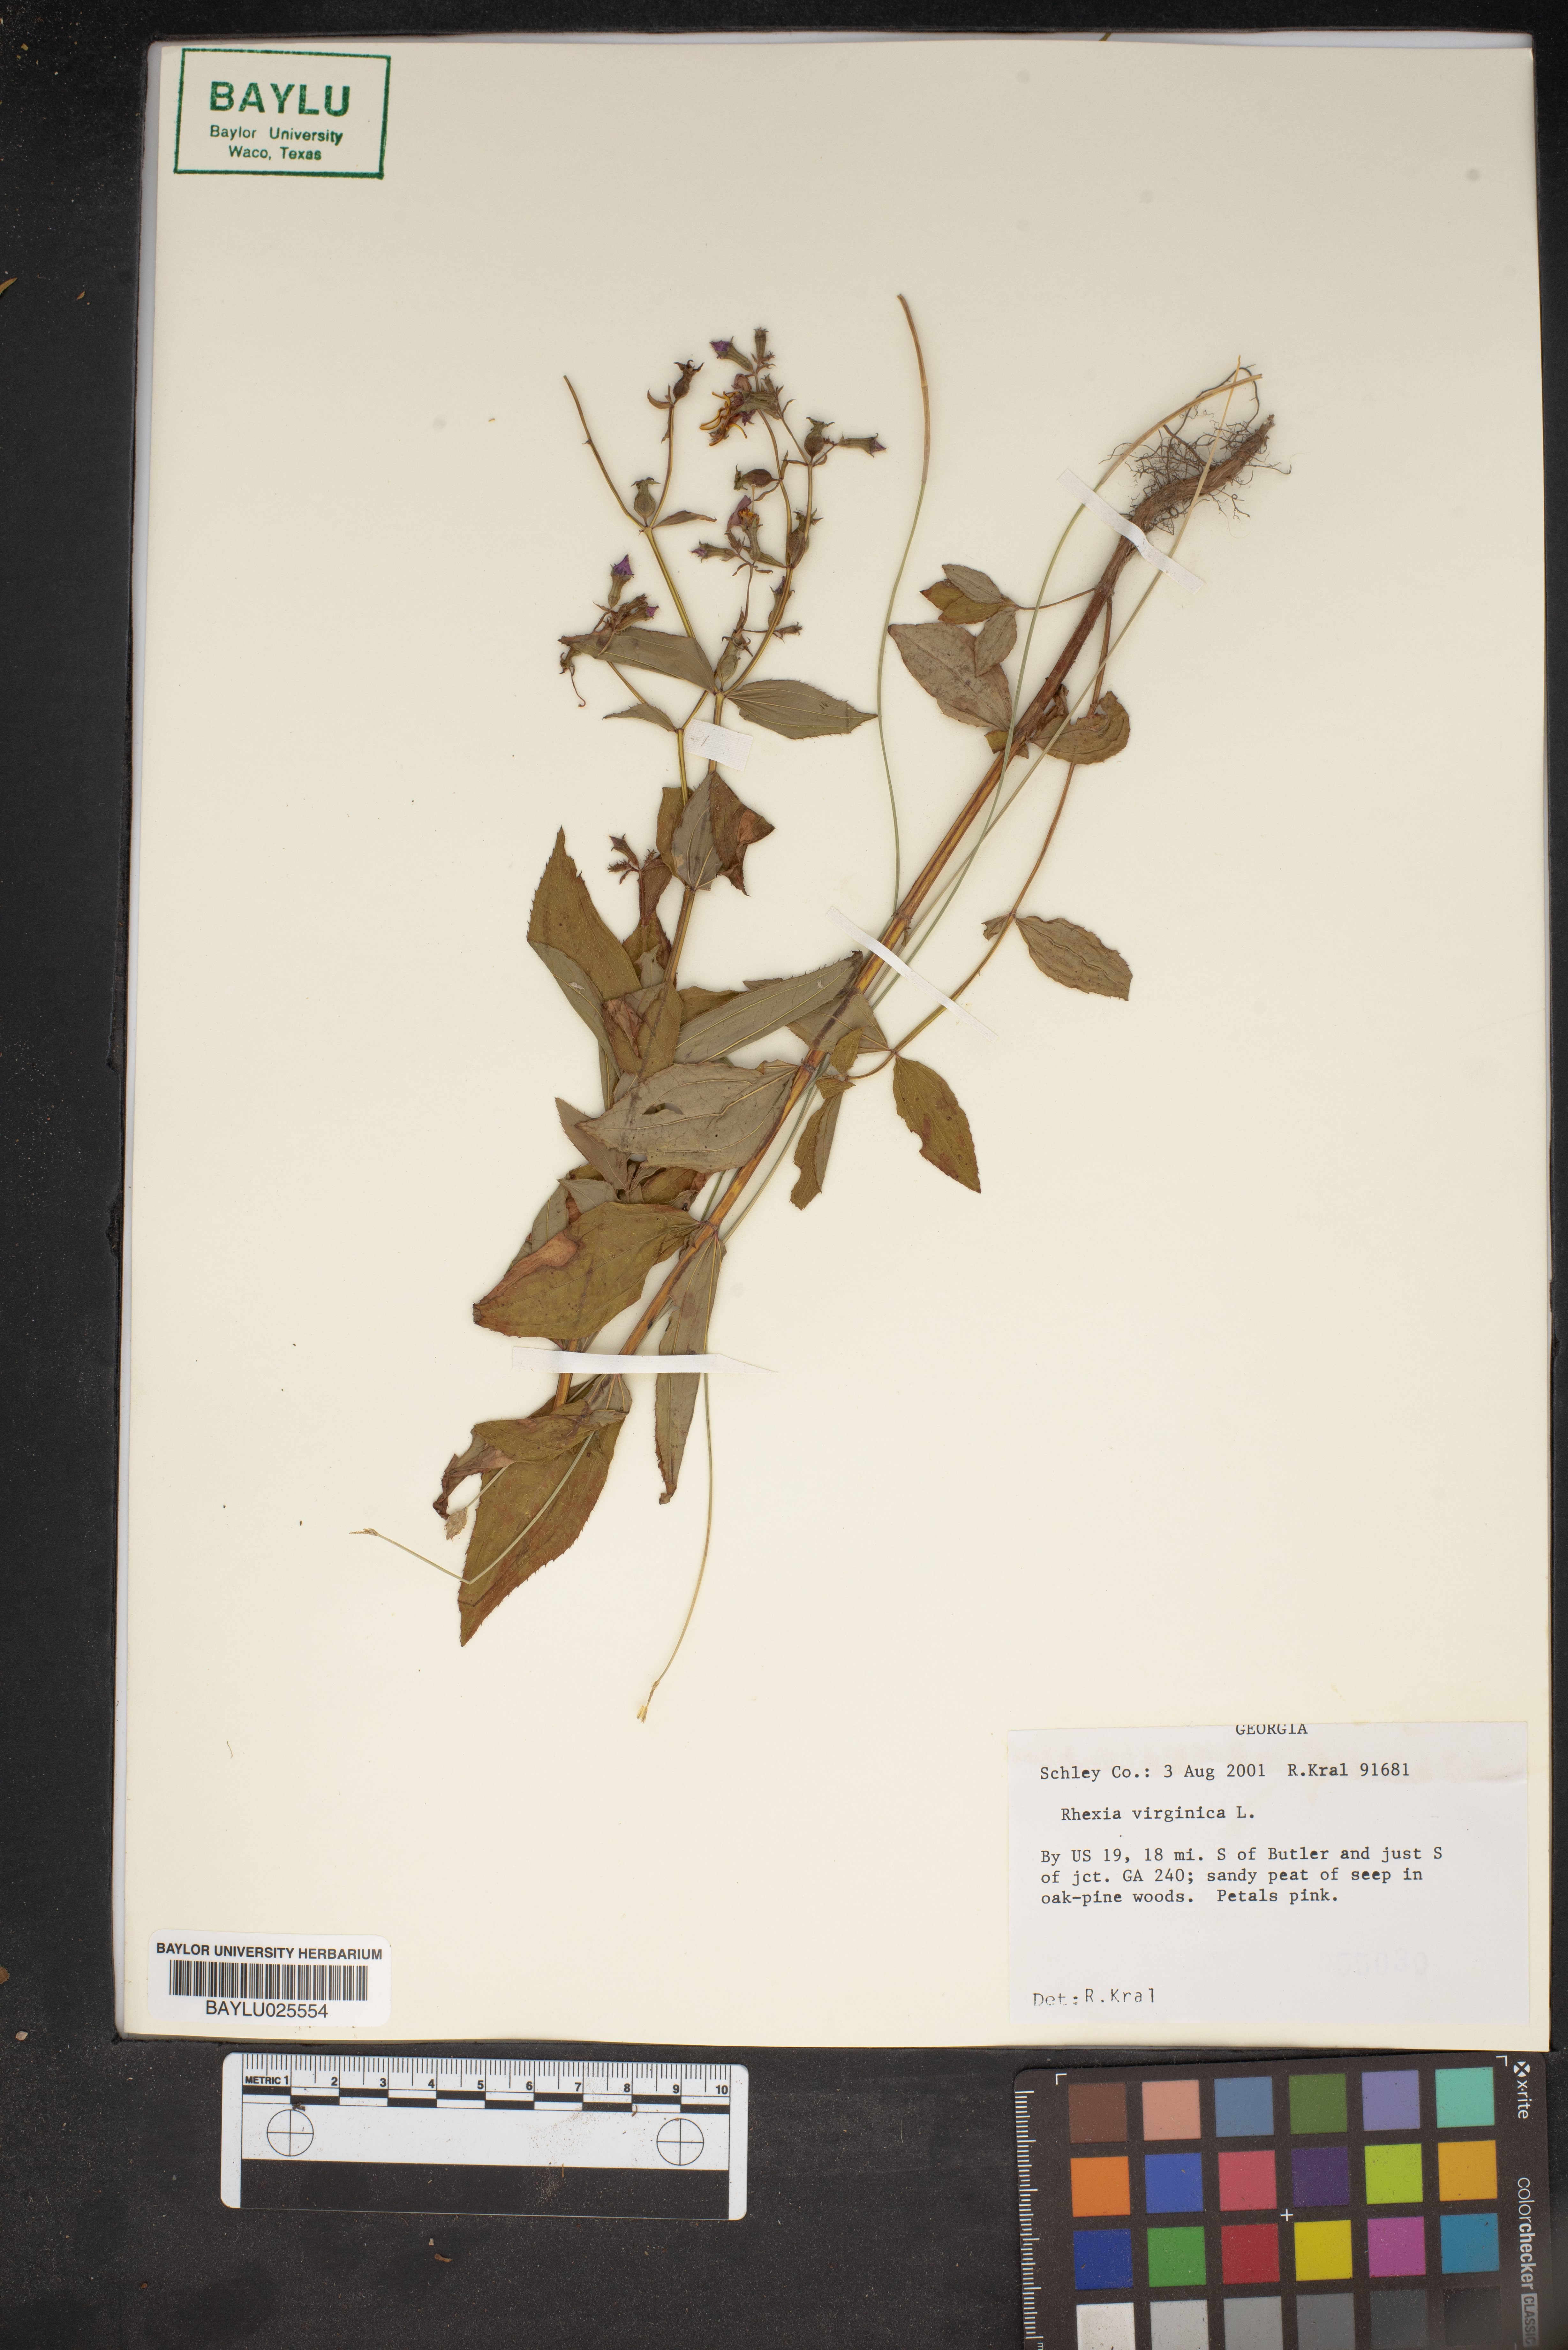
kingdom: Plantae
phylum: Tracheophyta
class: Magnoliopsida
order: Myrtales
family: Melastomataceae
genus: Rhexia
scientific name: Rhexia virginica
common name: Common meadow beauty
